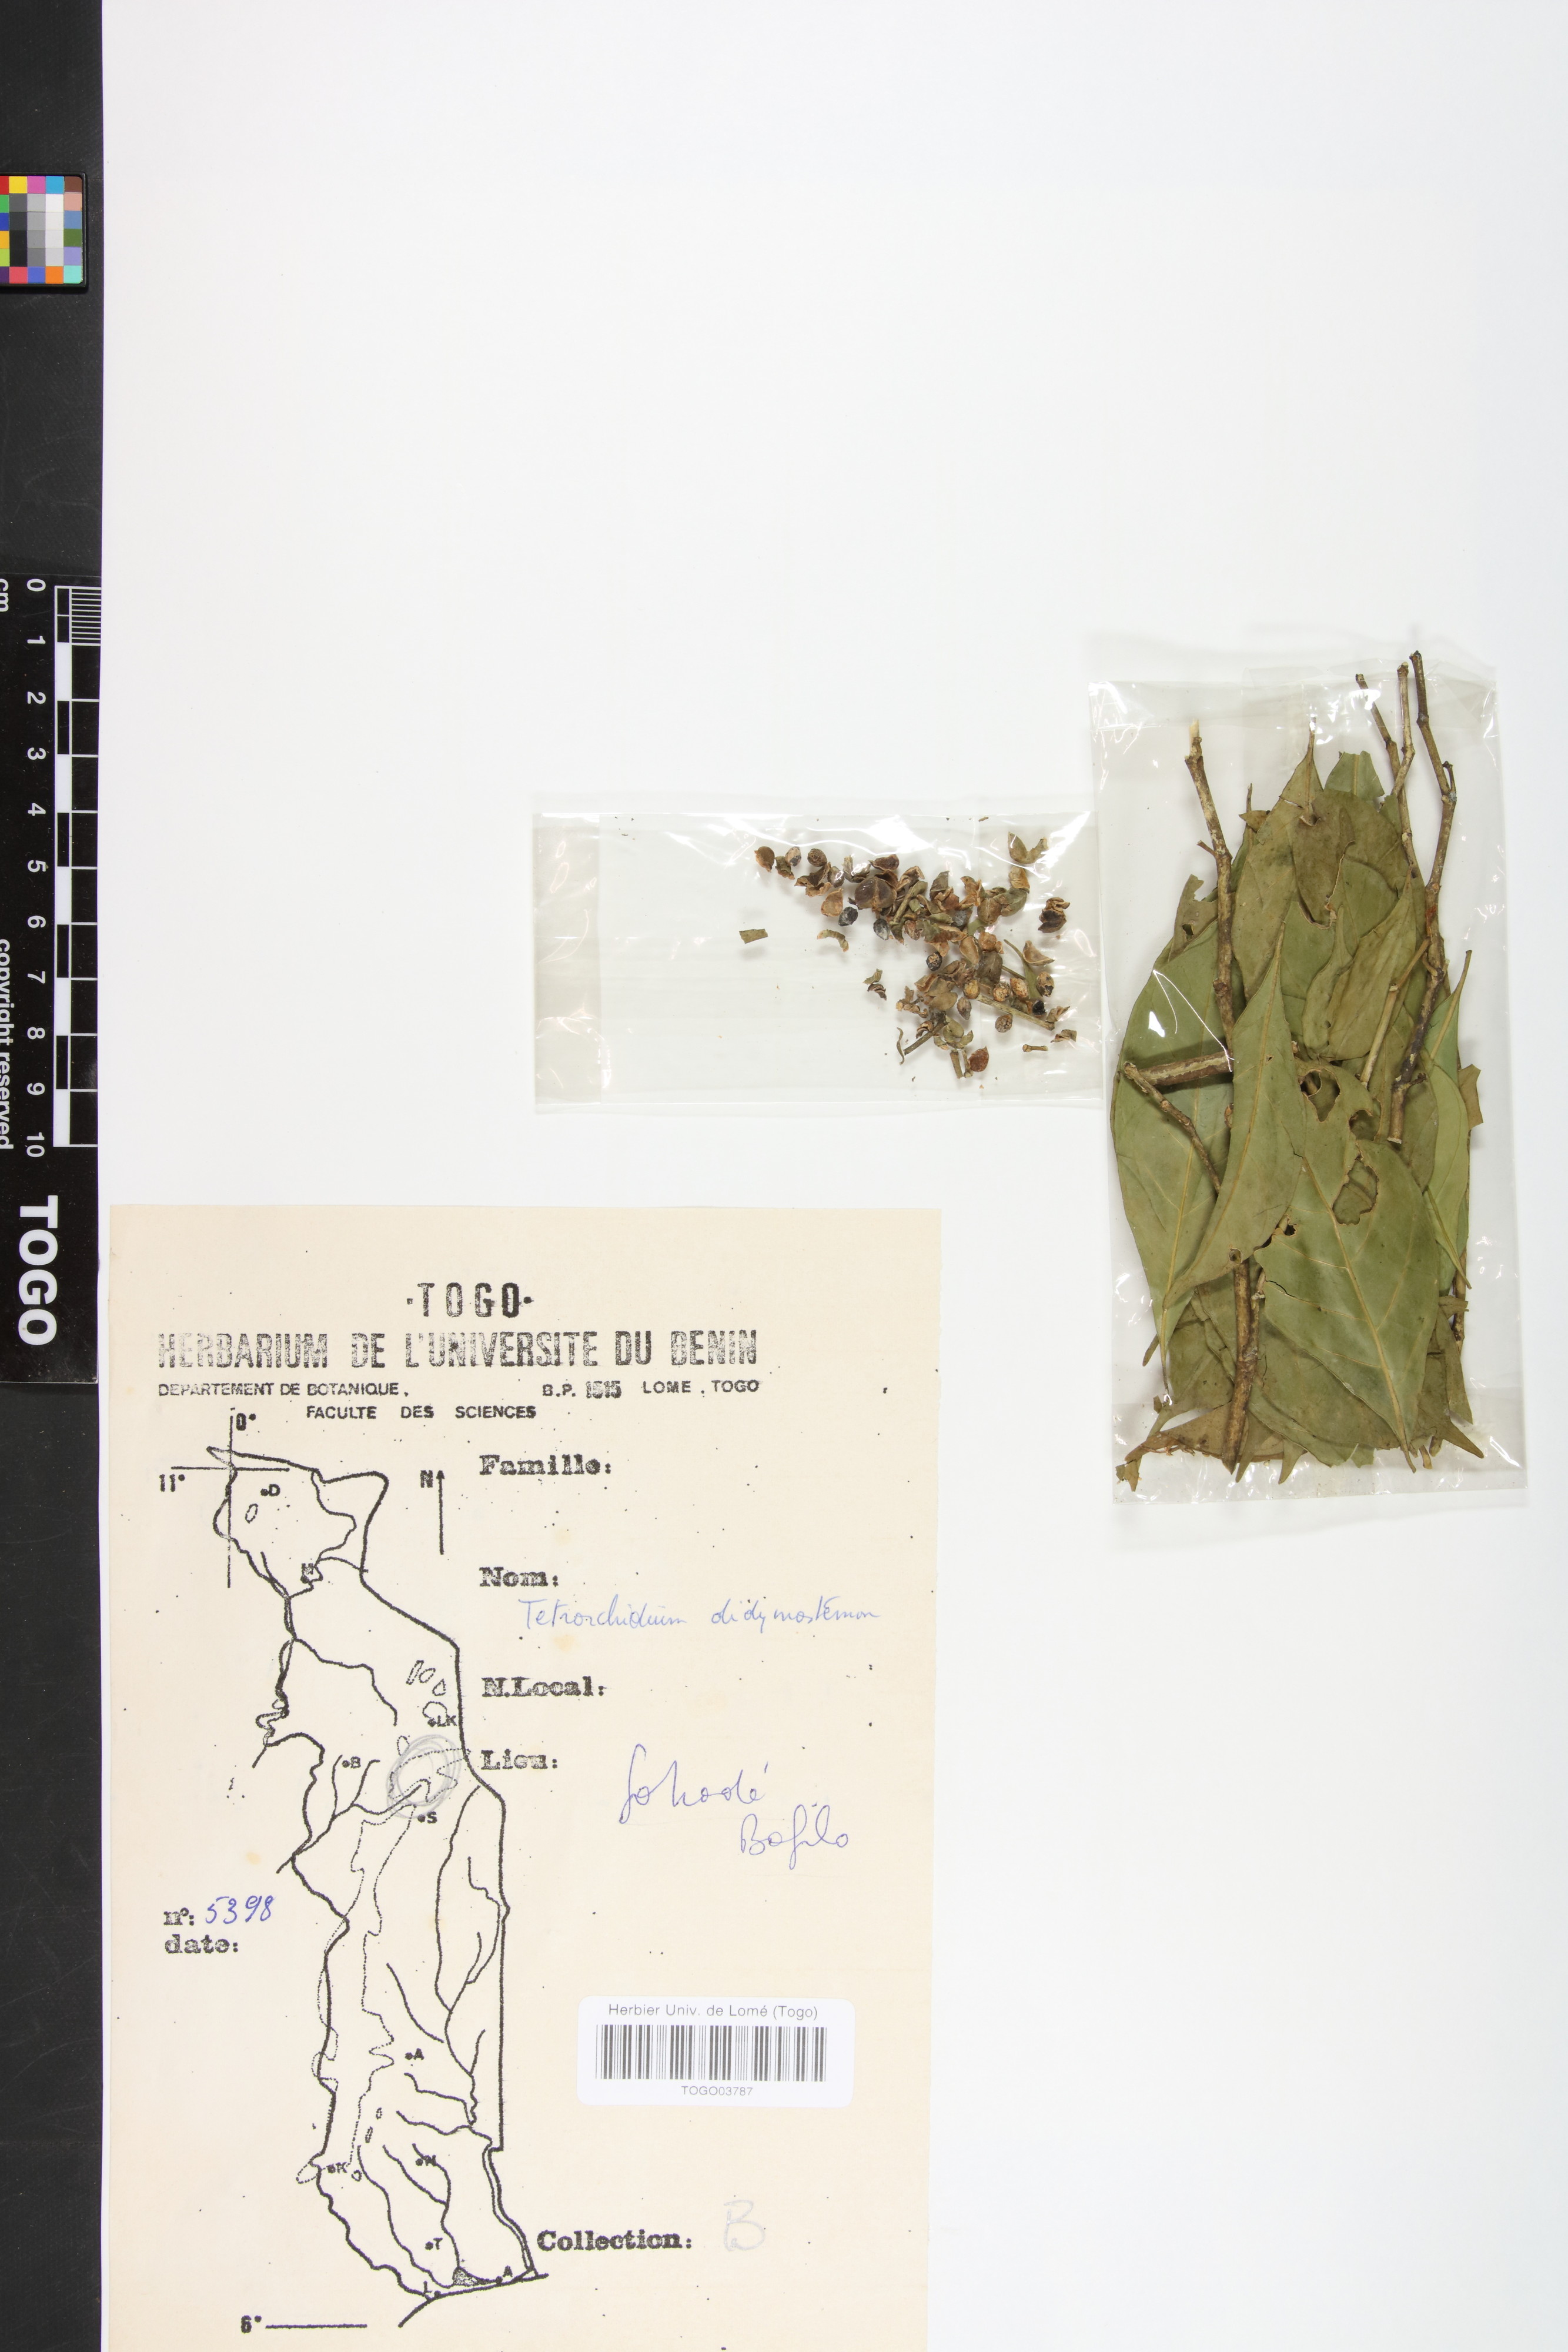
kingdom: Plantae
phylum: Tracheophyta
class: Magnoliopsida
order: Malpighiales
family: Euphorbiaceae
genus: Tetrorchidium
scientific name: Tetrorchidium didymostemon
